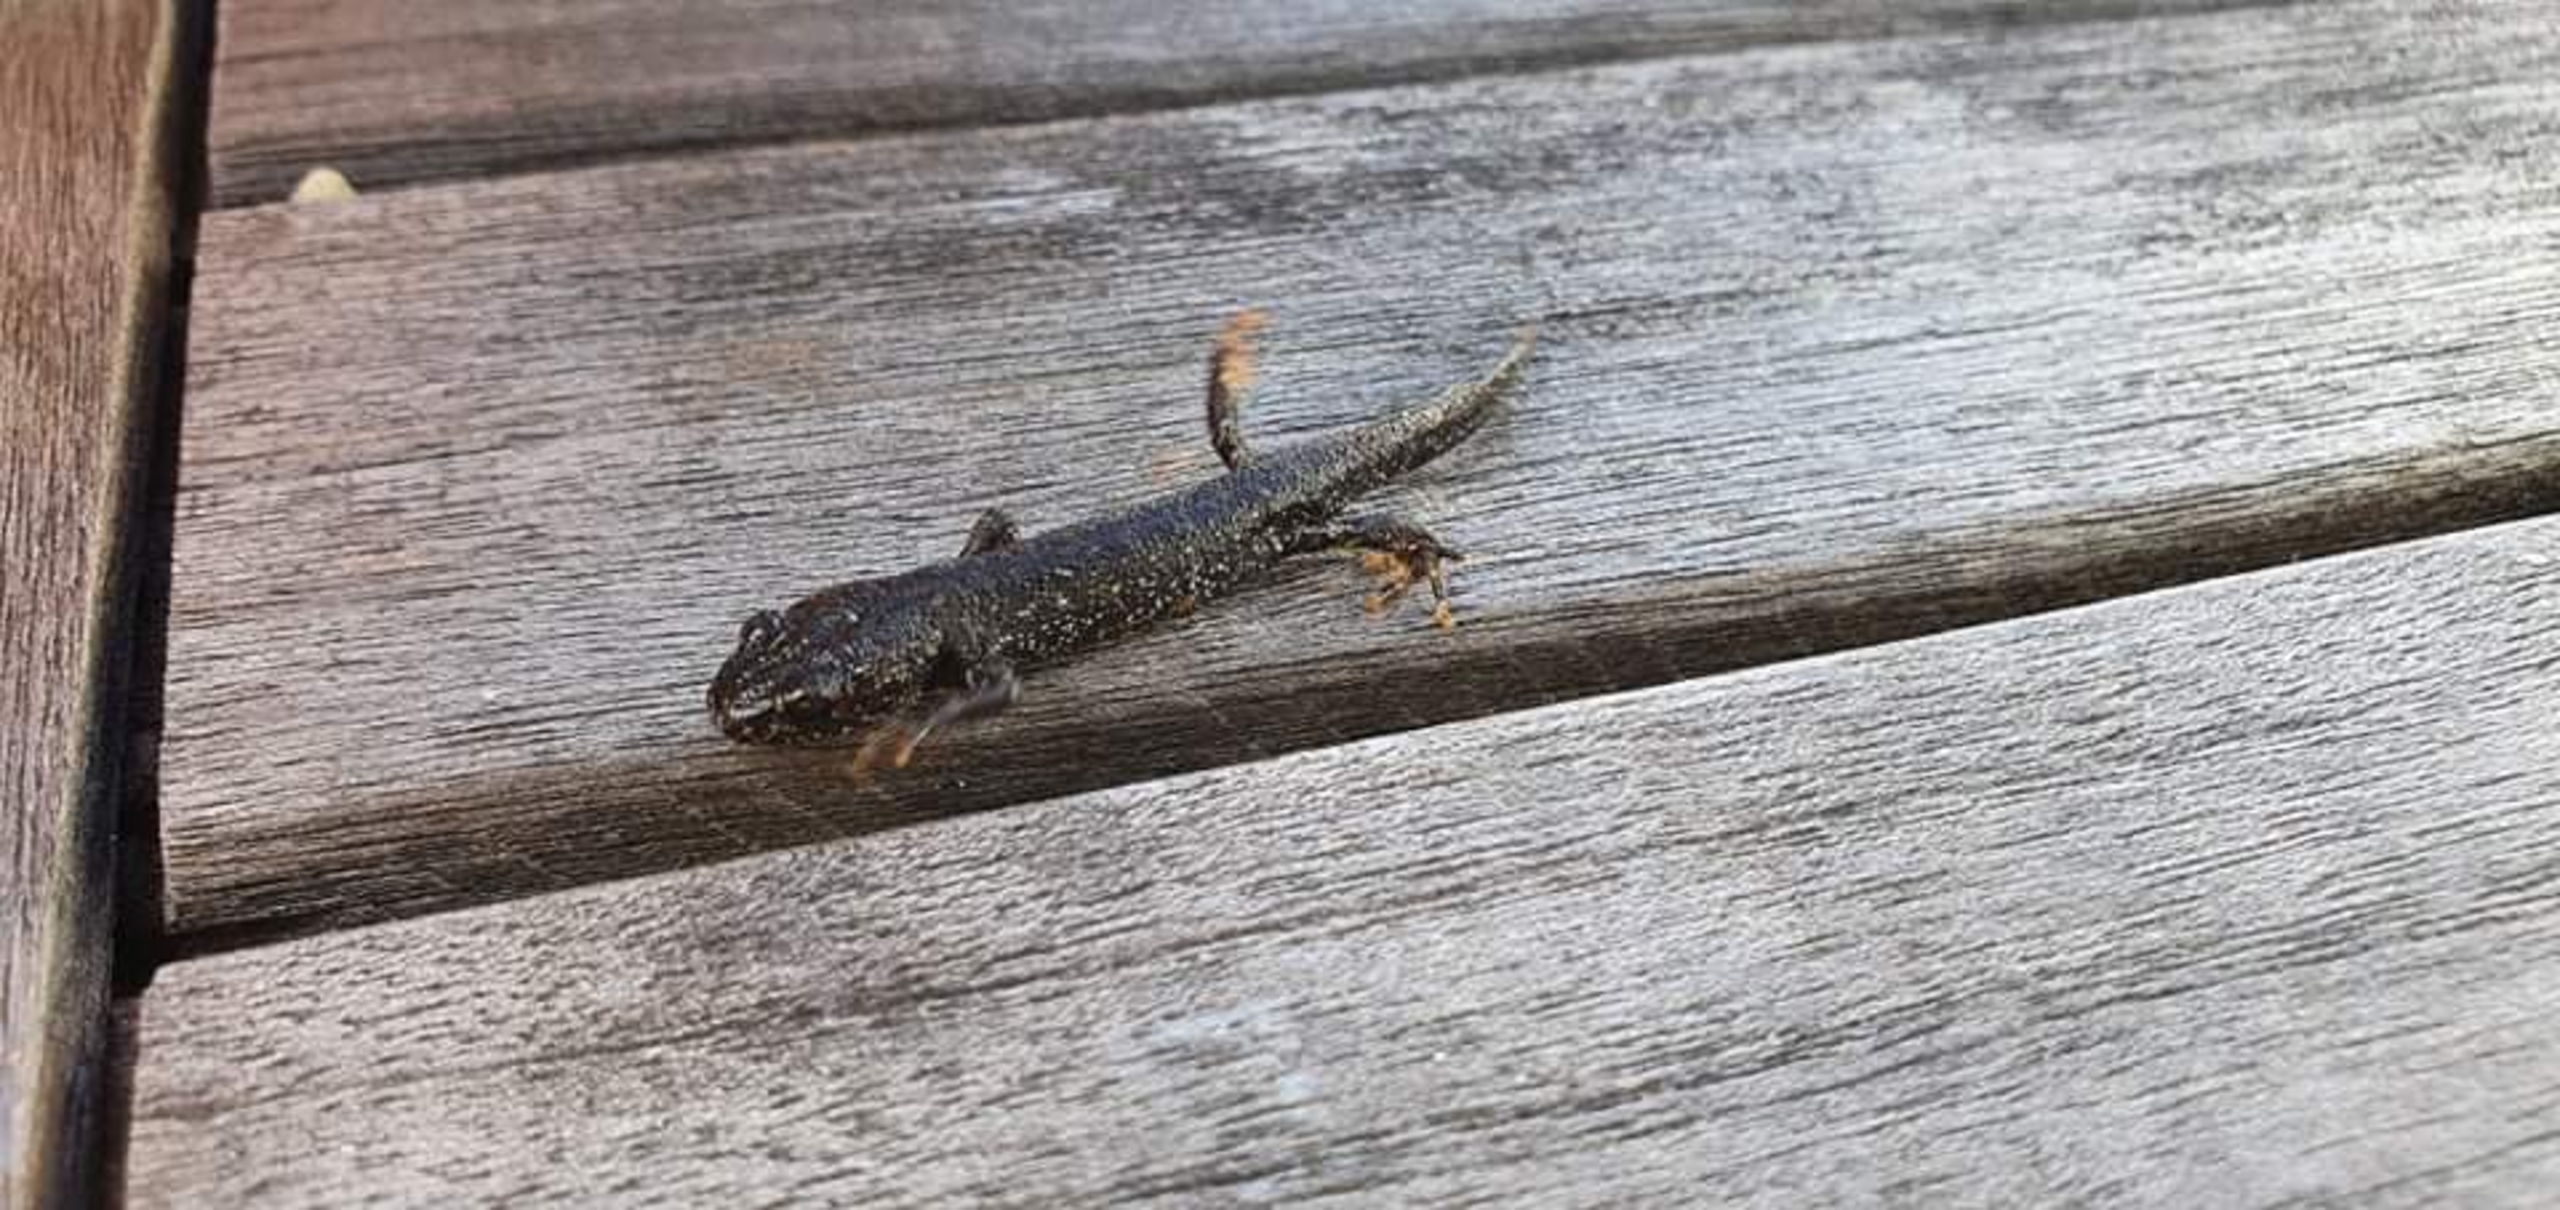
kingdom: Animalia
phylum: Chordata
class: Amphibia
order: Caudata
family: Salamandridae
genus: Triturus
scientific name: Triturus cristatus
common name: Stor vandsalamander
